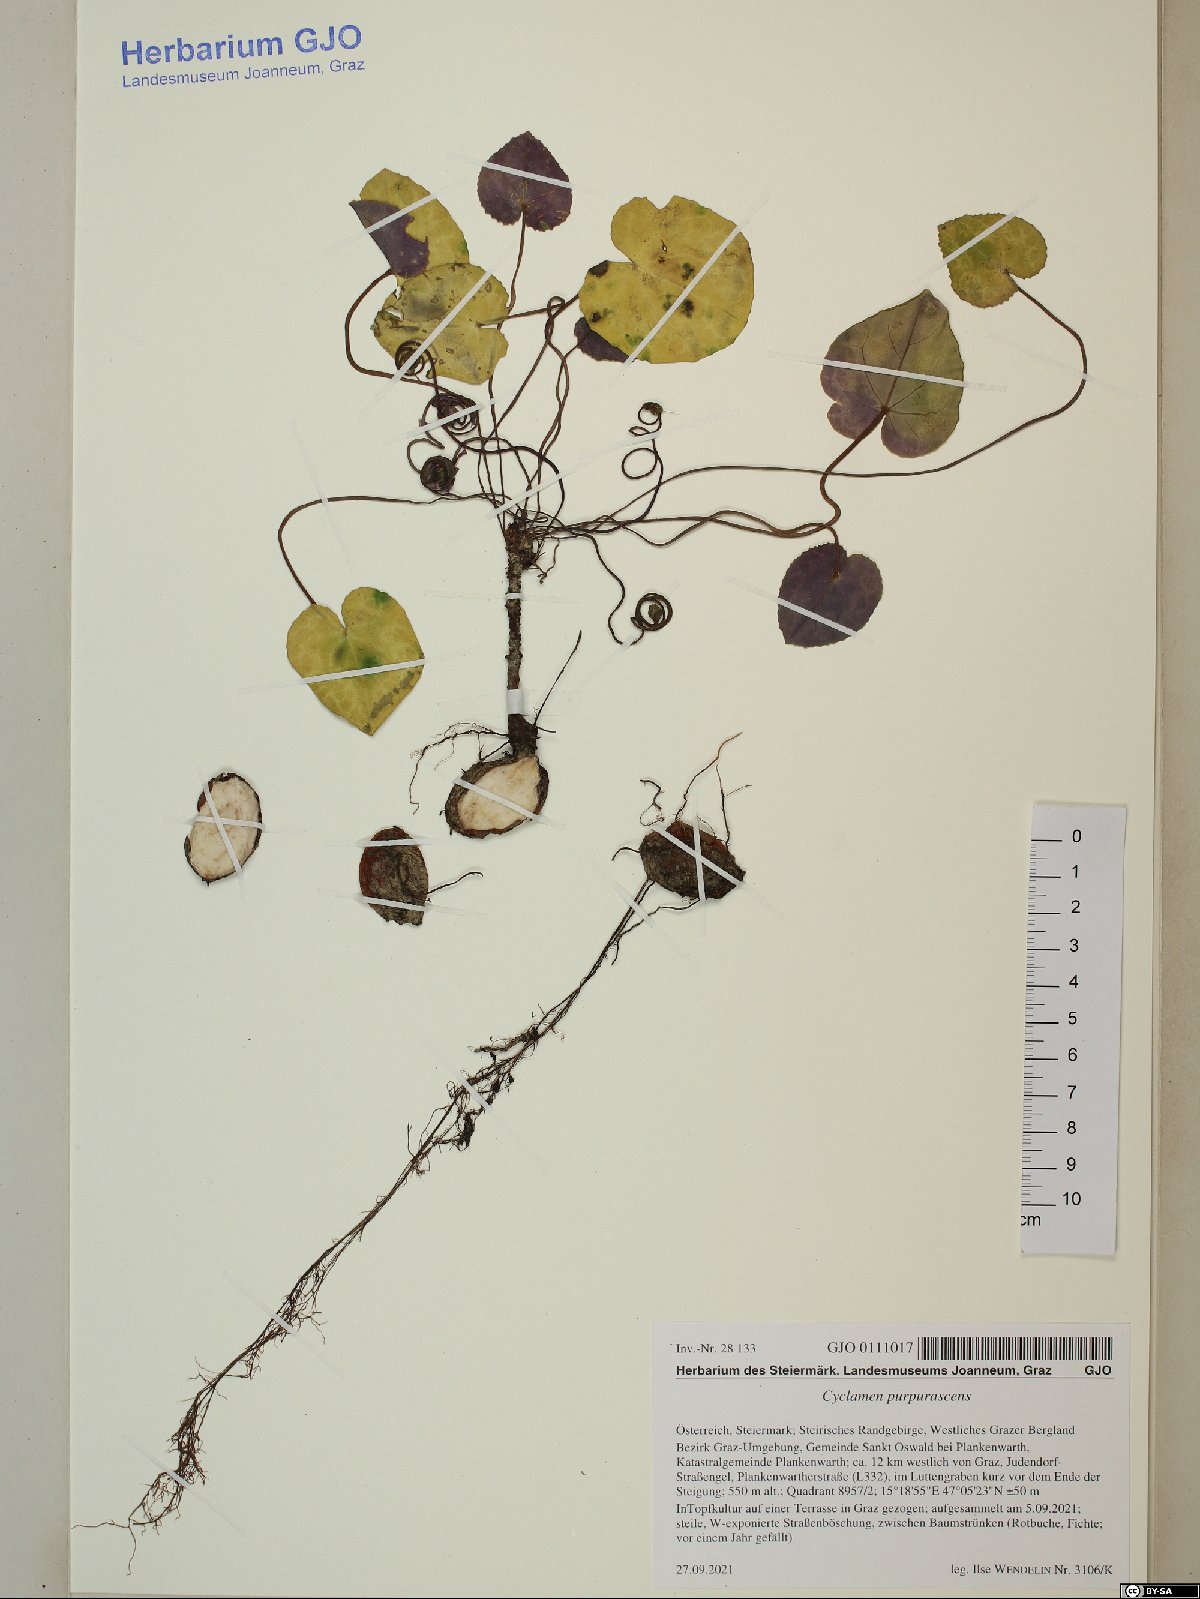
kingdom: Plantae
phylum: Tracheophyta
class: Magnoliopsida
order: Ericales
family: Primulaceae
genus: Cyclamen
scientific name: Cyclamen purpurascens
